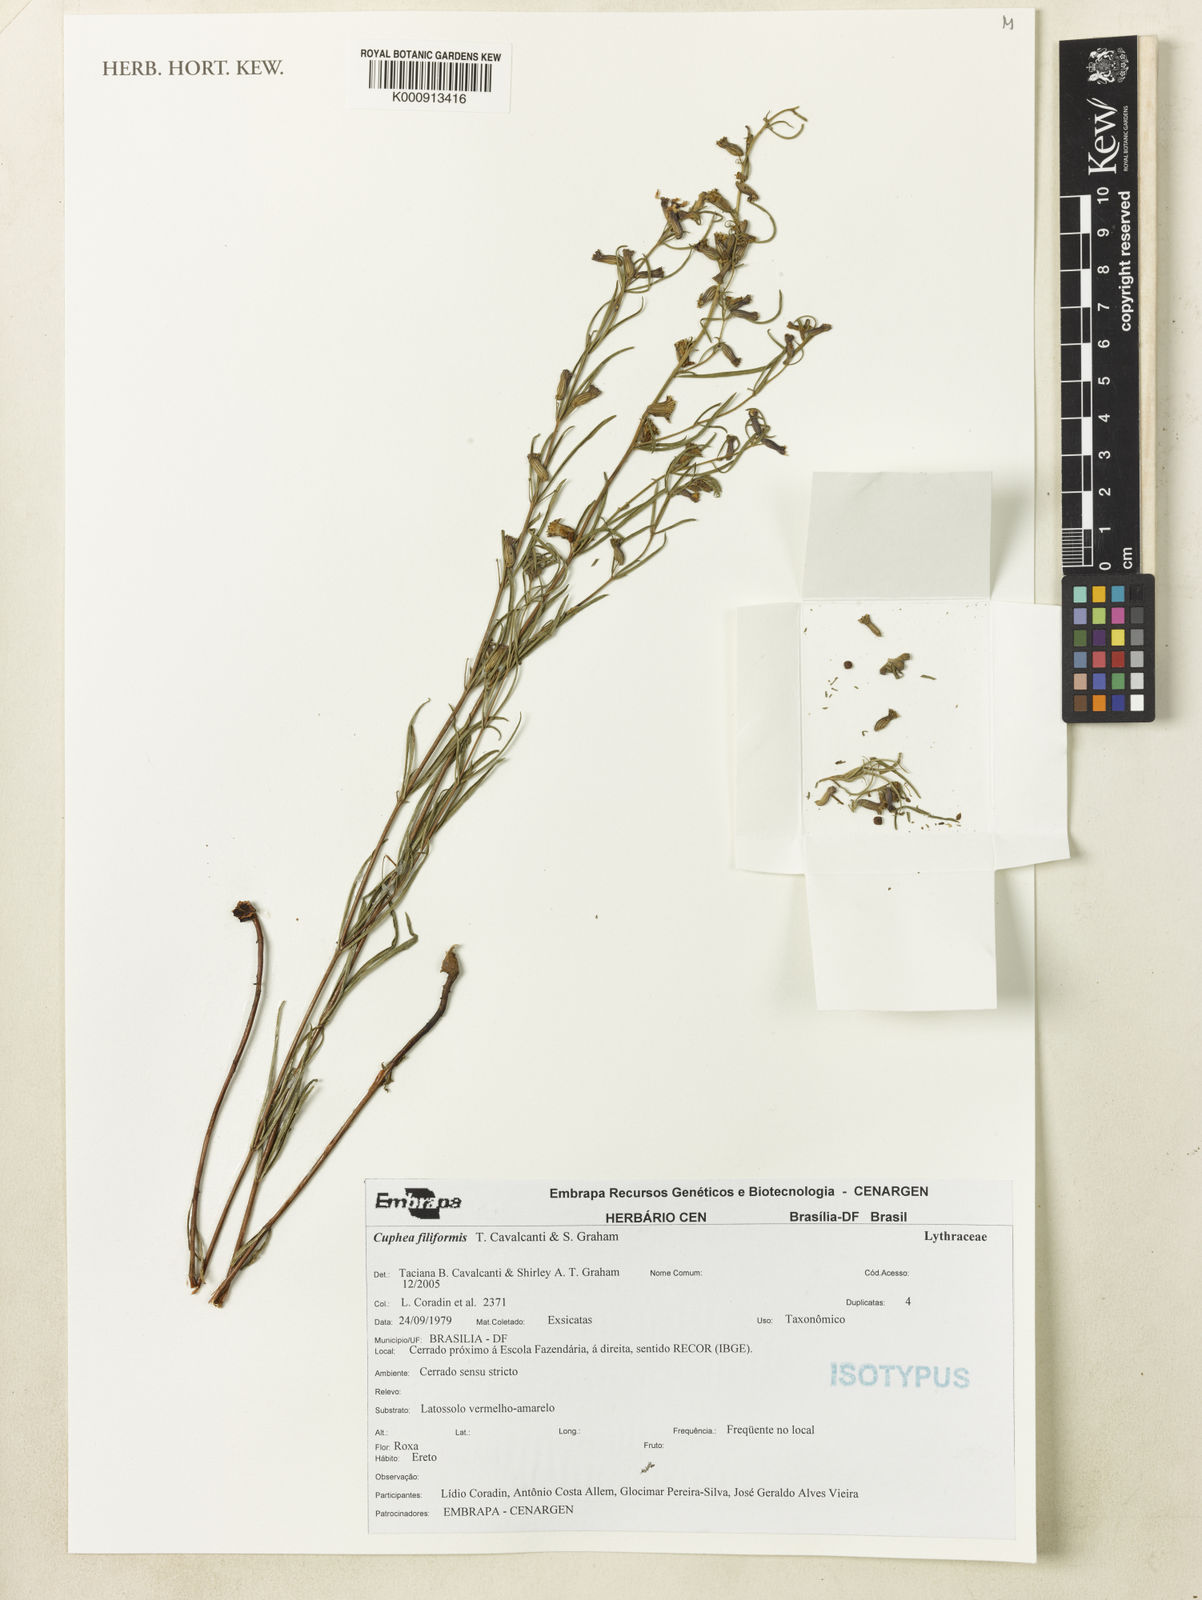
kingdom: Plantae
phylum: Tracheophyta
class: Magnoliopsida
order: Myrtales
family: Lythraceae
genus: Cuphea
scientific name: Cuphea filiformis
